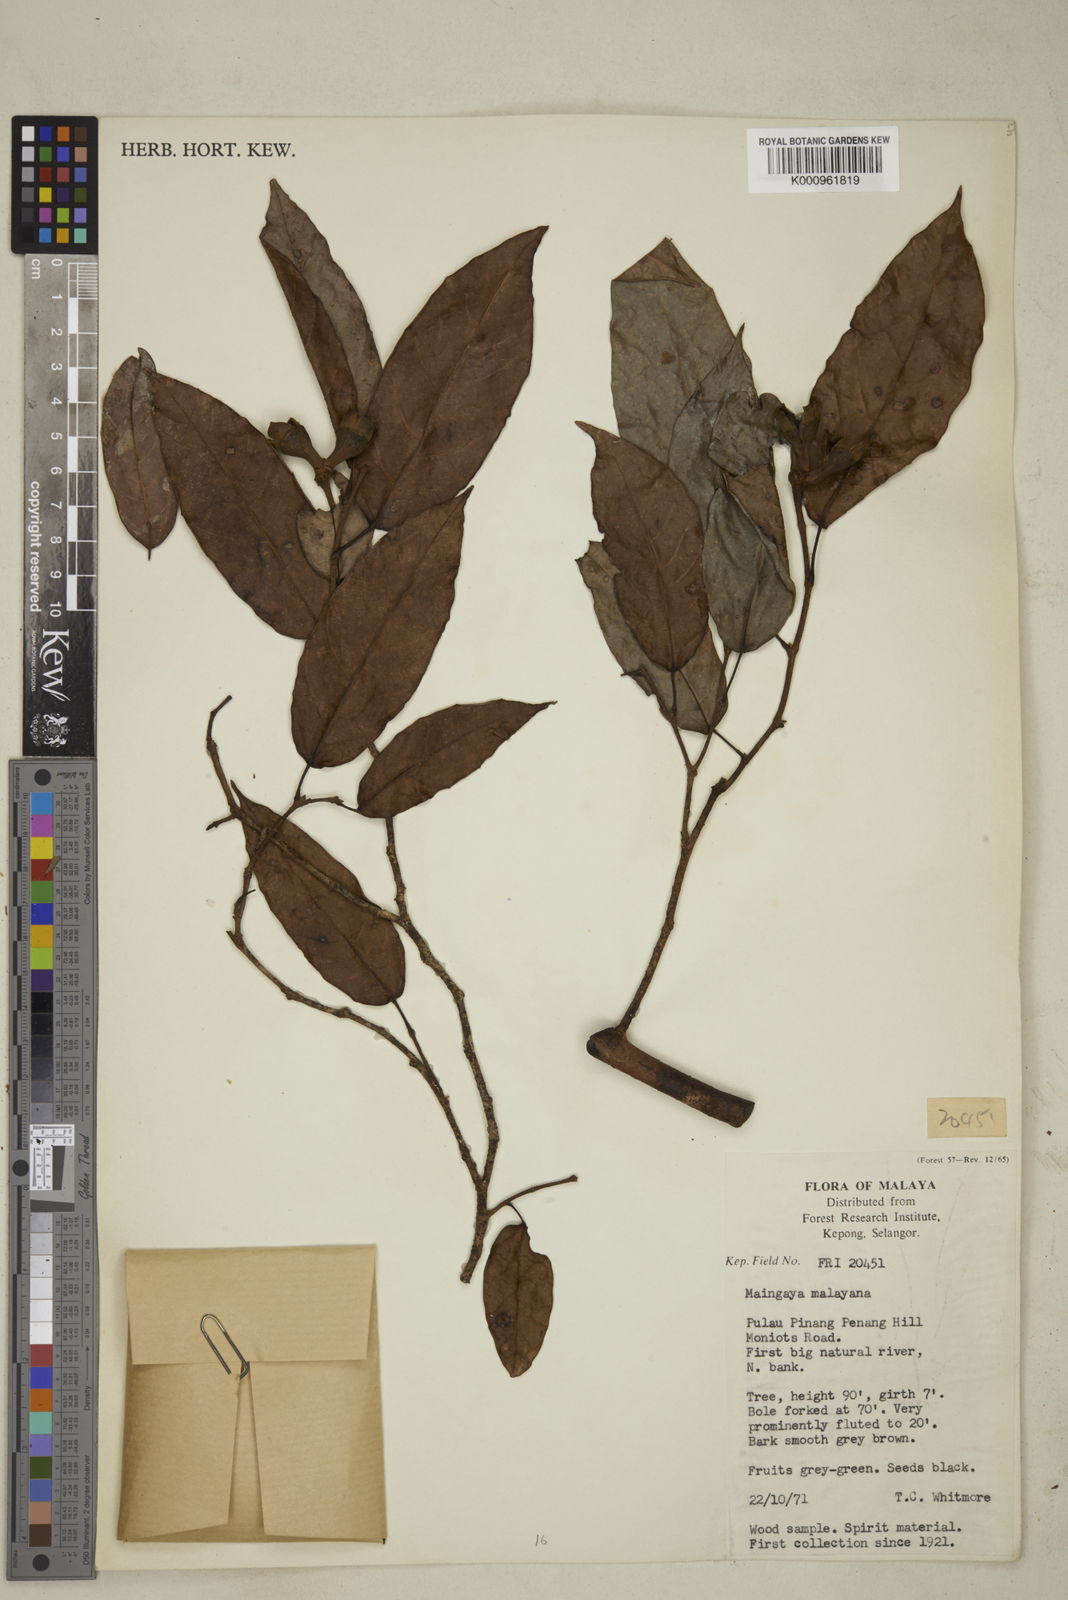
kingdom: Plantae
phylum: Tracheophyta
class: Magnoliopsida
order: Saxifragales
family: Hamamelidaceae
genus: Maingaya
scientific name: Maingaya malayana
